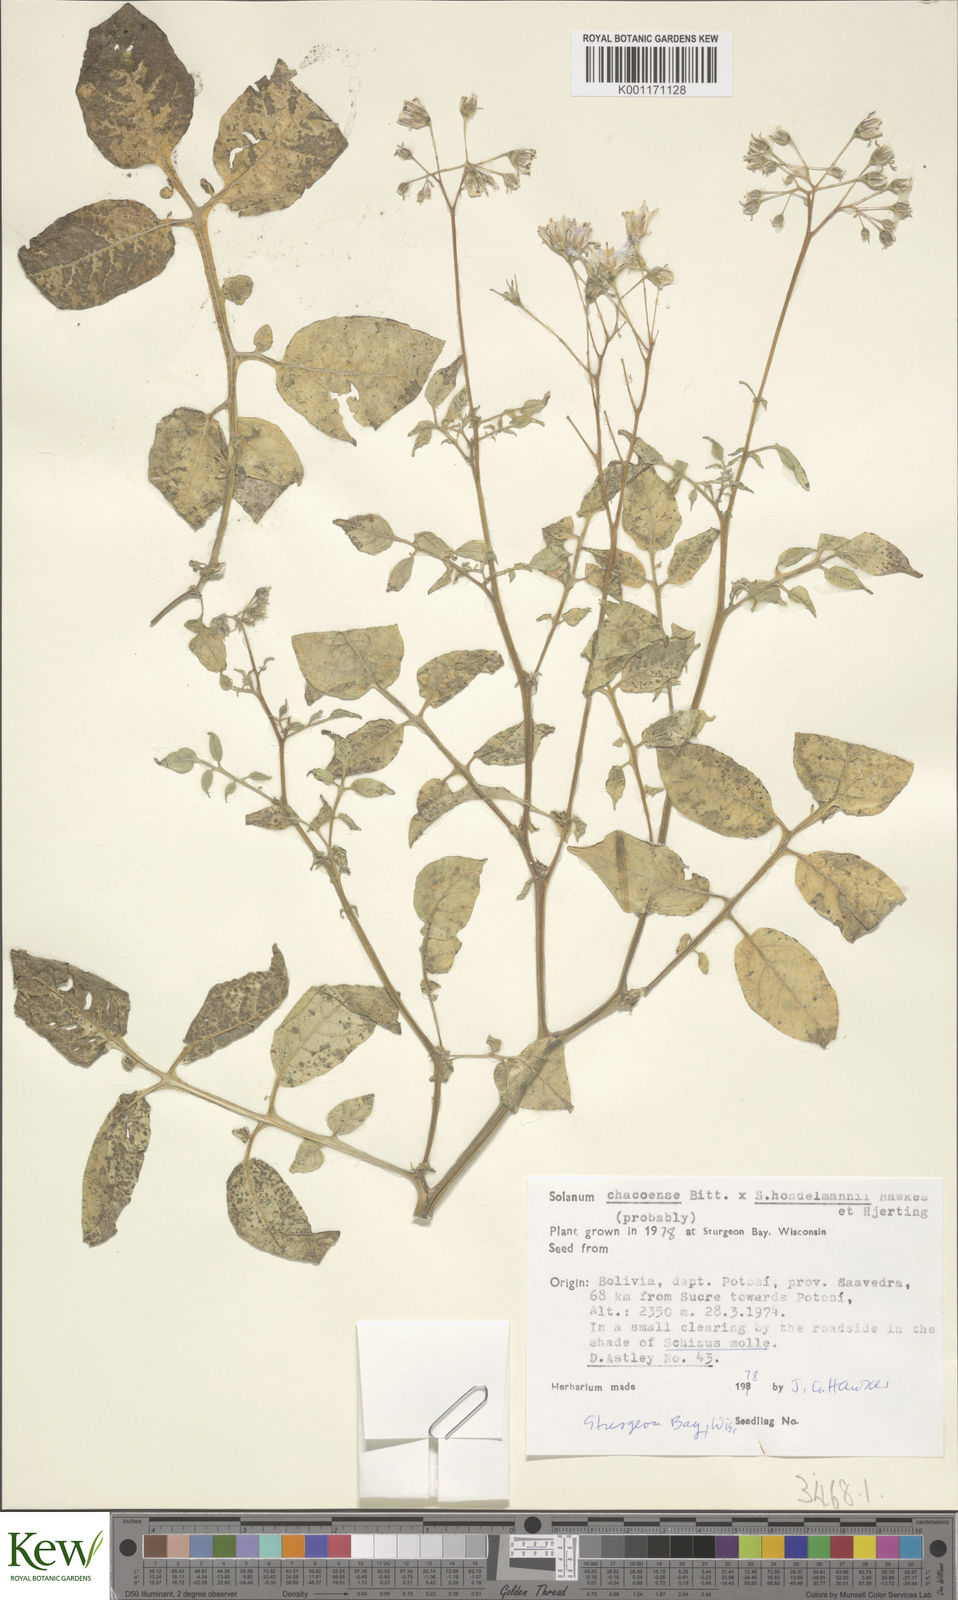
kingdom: Plantae
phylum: Tracheophyta
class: Magnoliopsida
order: Solanales
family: Solanaceae
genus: Solanum
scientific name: Solanum chacoense
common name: Chaco potato
